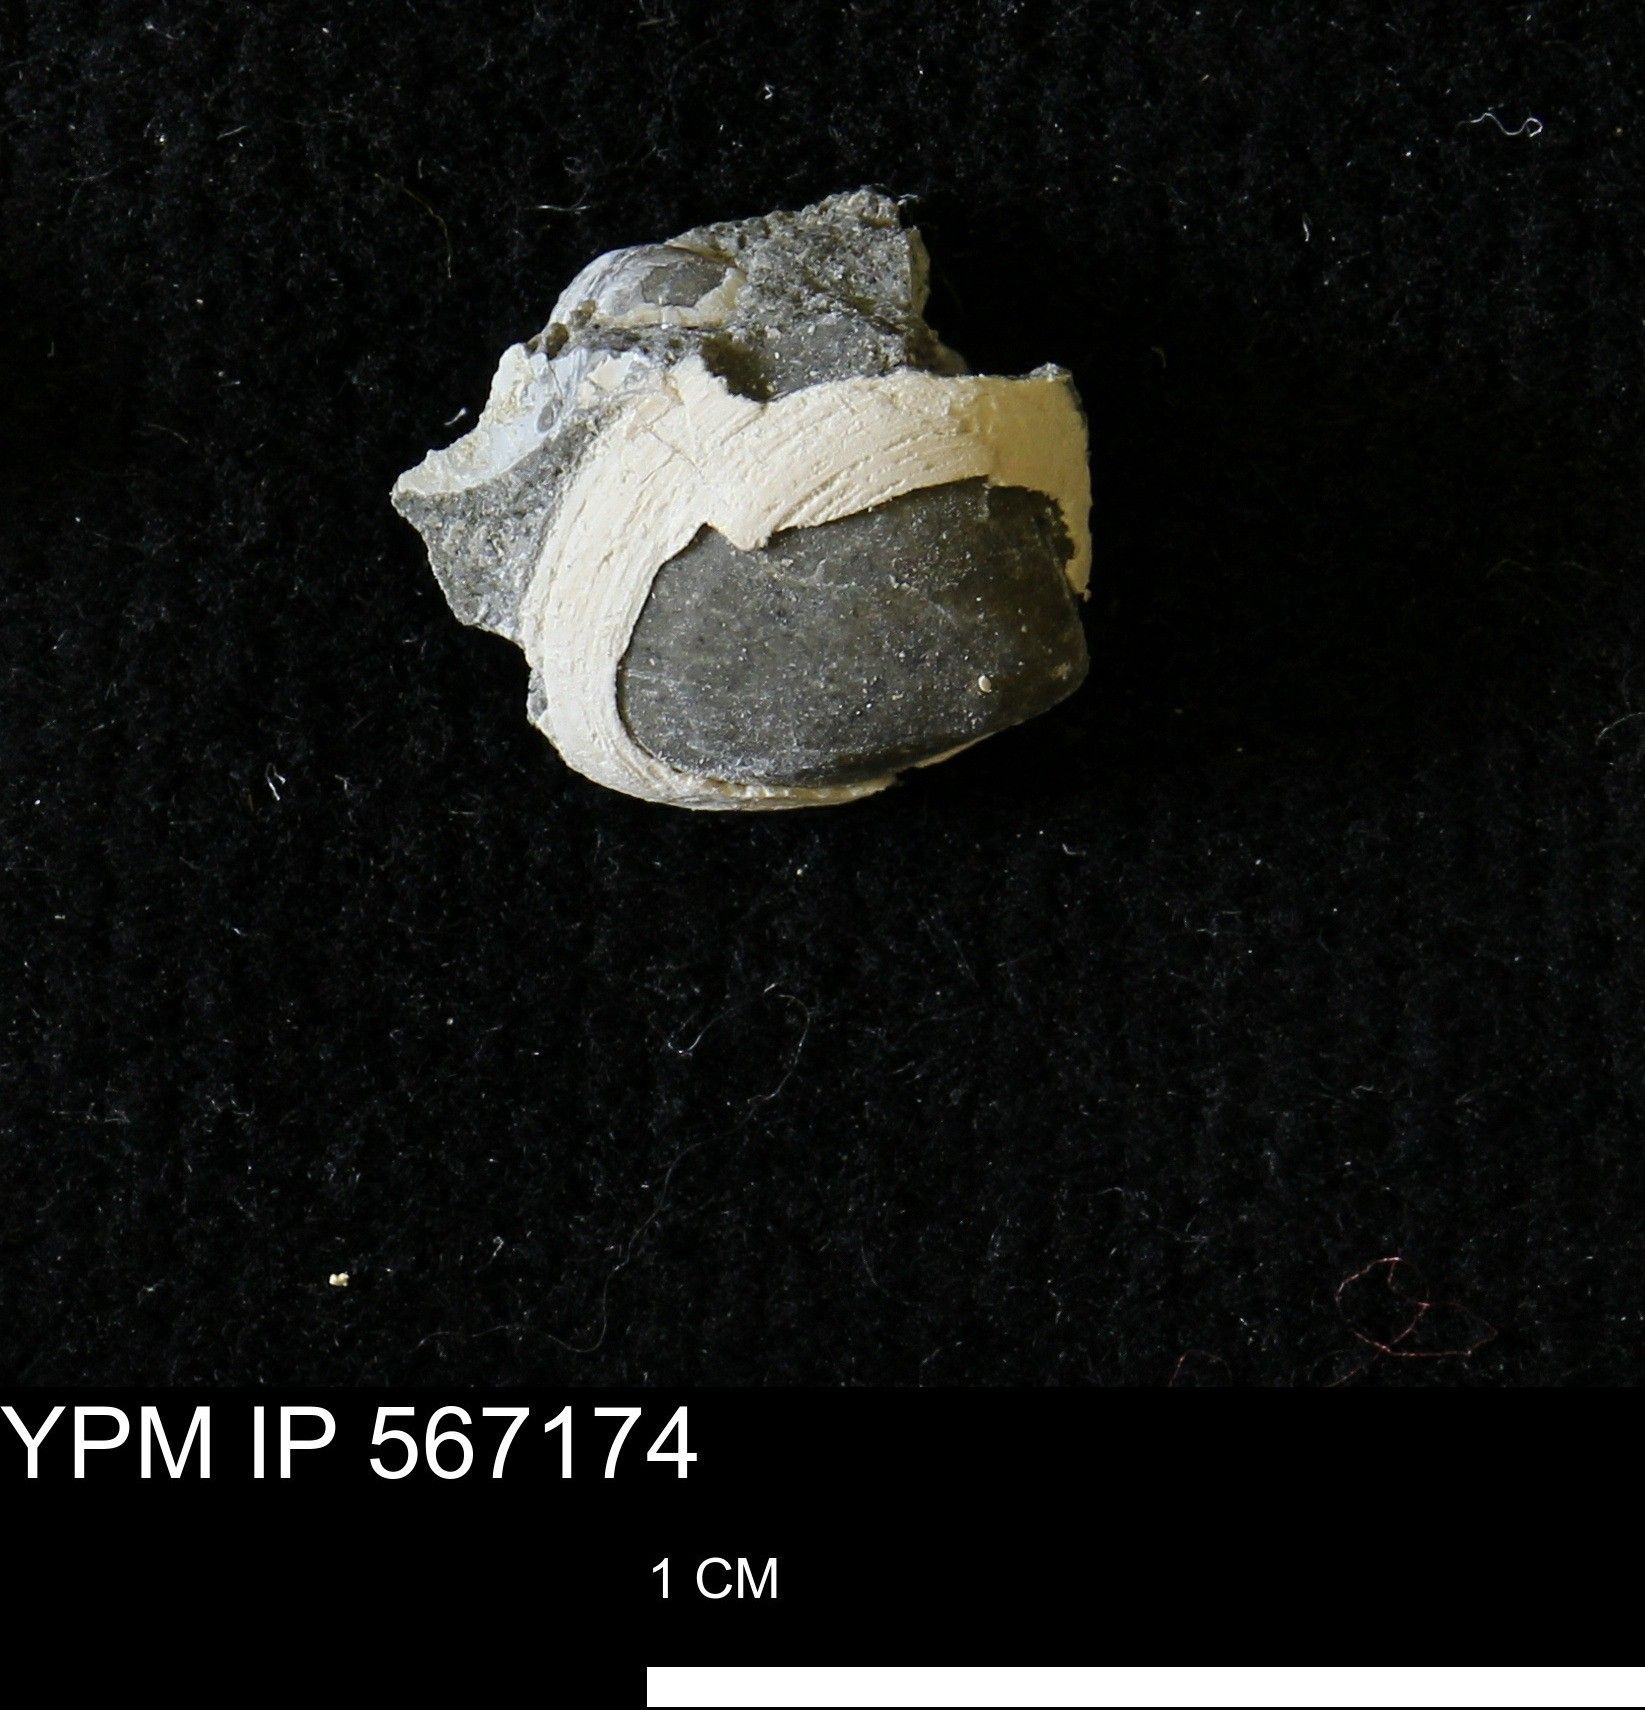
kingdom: Animalia
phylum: Mollusca
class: Bivalvia
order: Cardiida
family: Cardiidae
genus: Protocardia
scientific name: Protocardia
